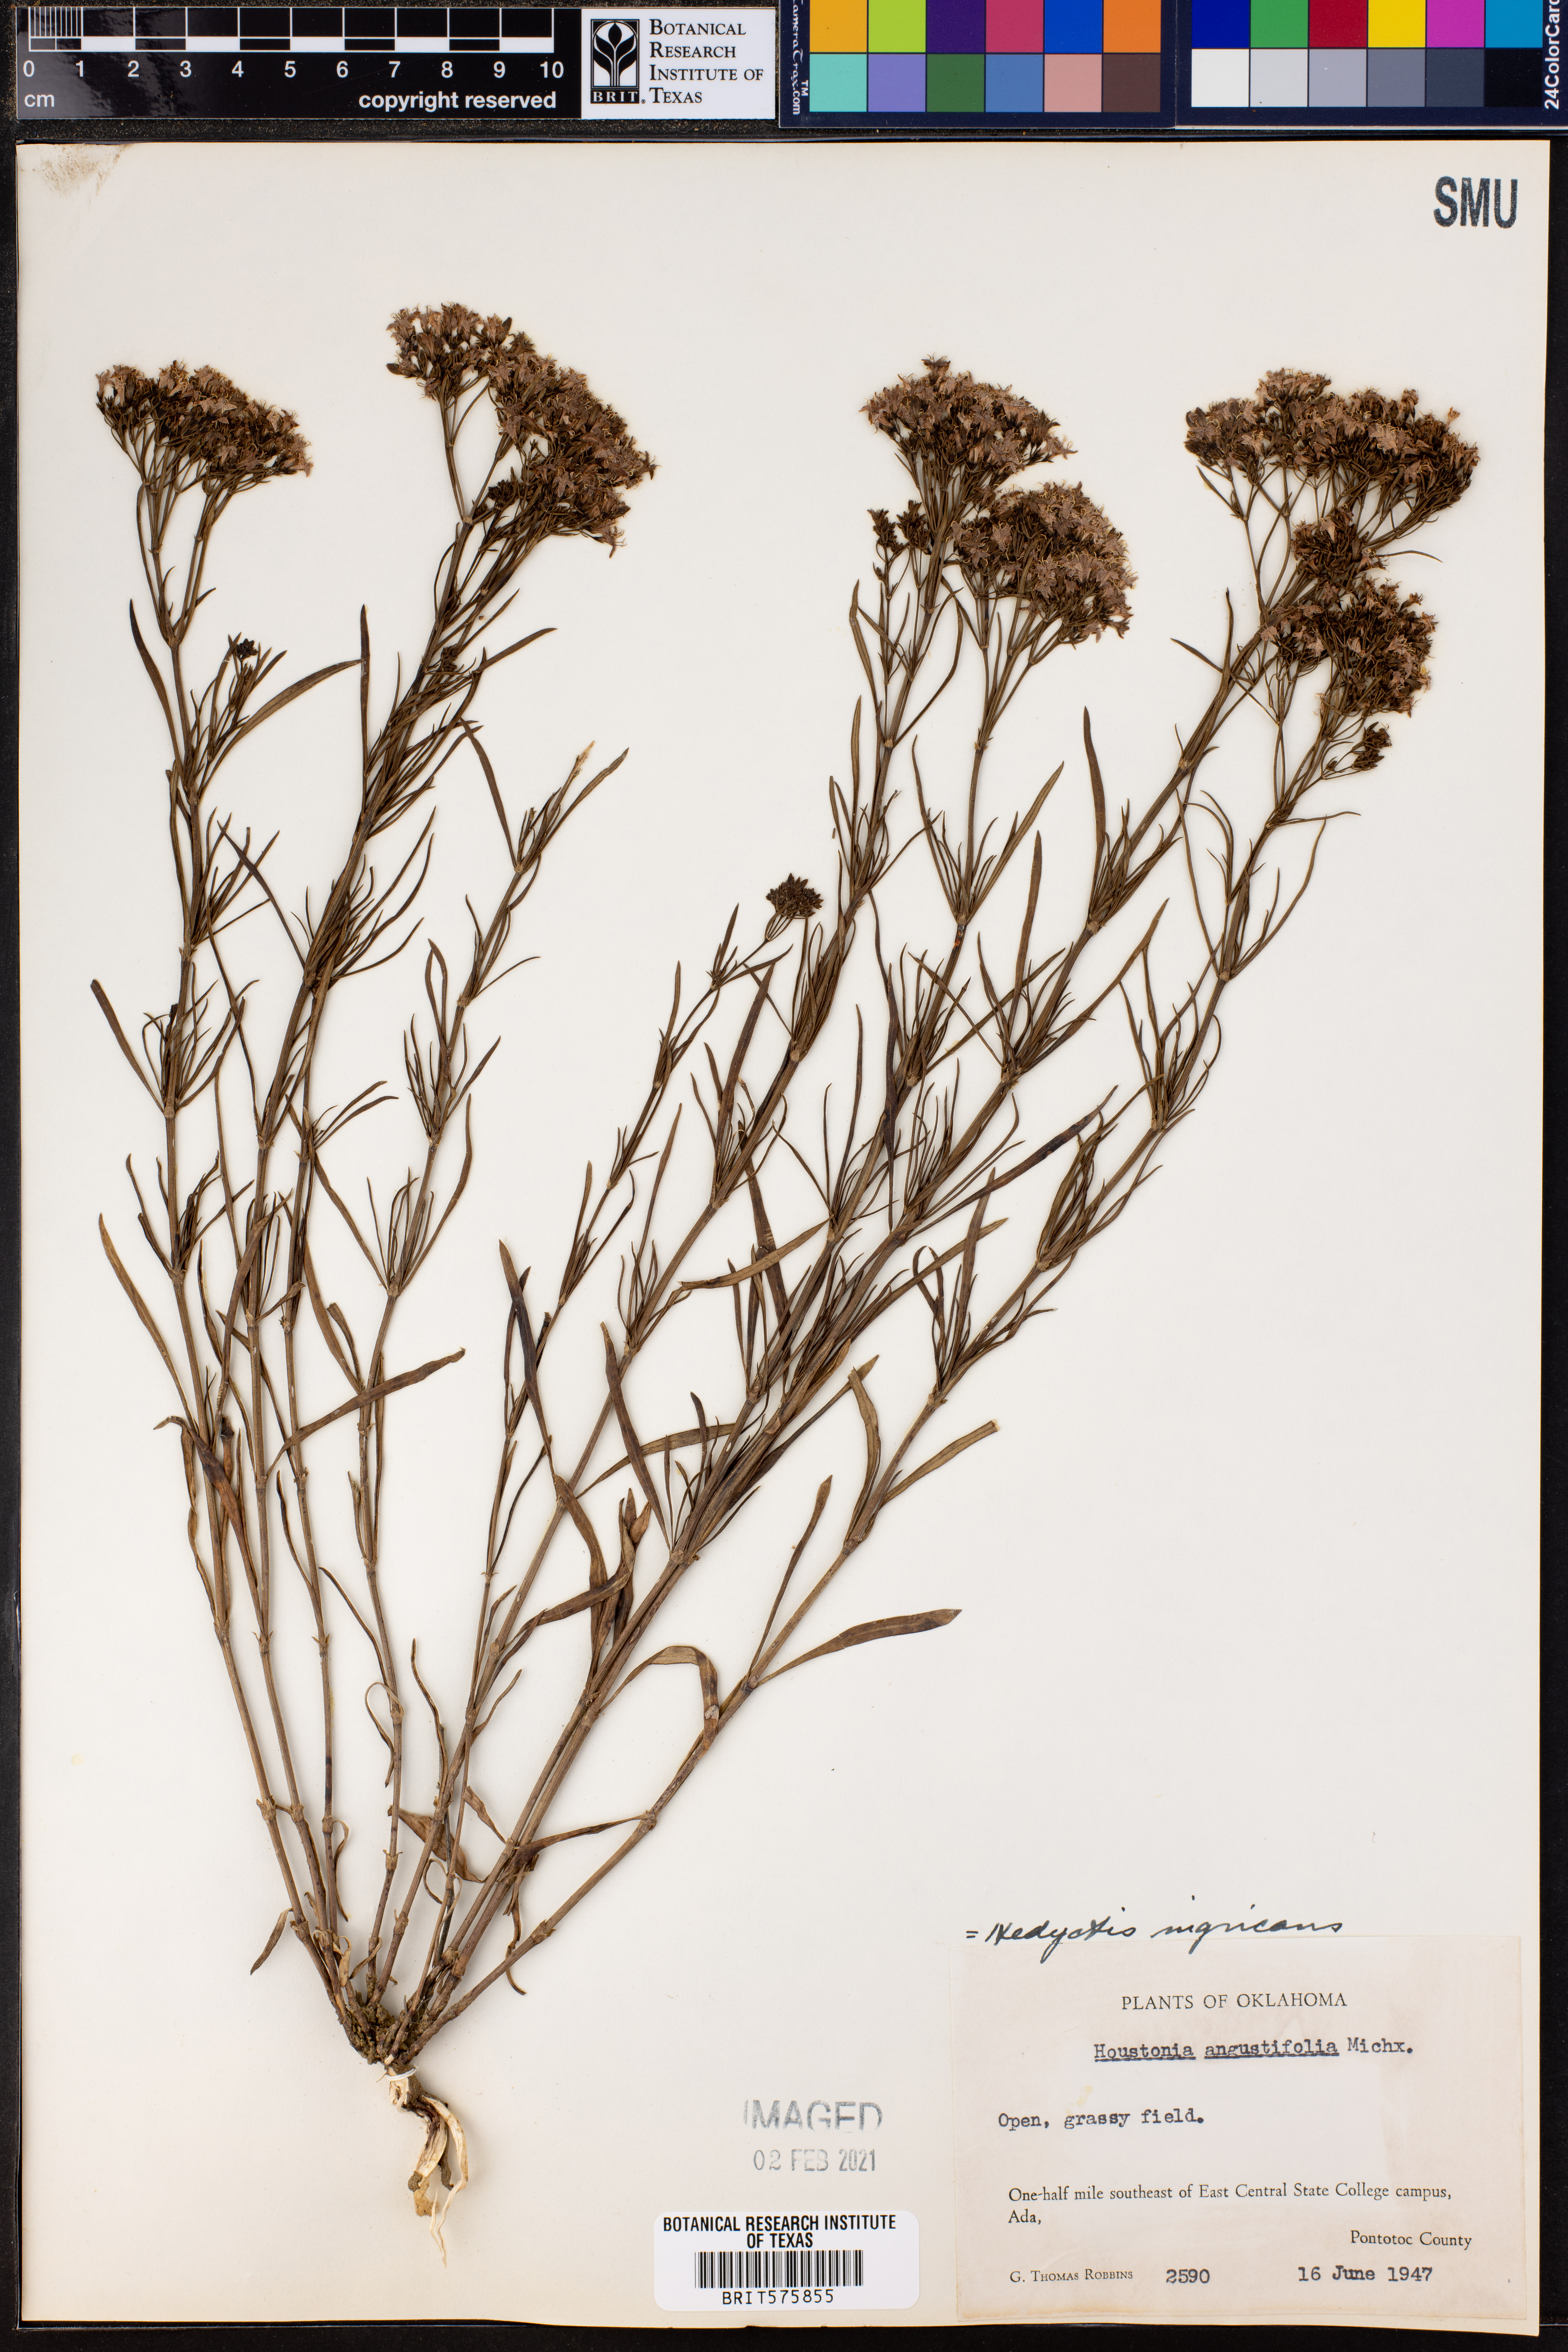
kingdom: Plantae
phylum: Tracheophyta
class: Magnoliopsida
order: Gentianales
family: Rubiaceae
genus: Stenaria
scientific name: Stenaria nigricans
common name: Diamondflowers
